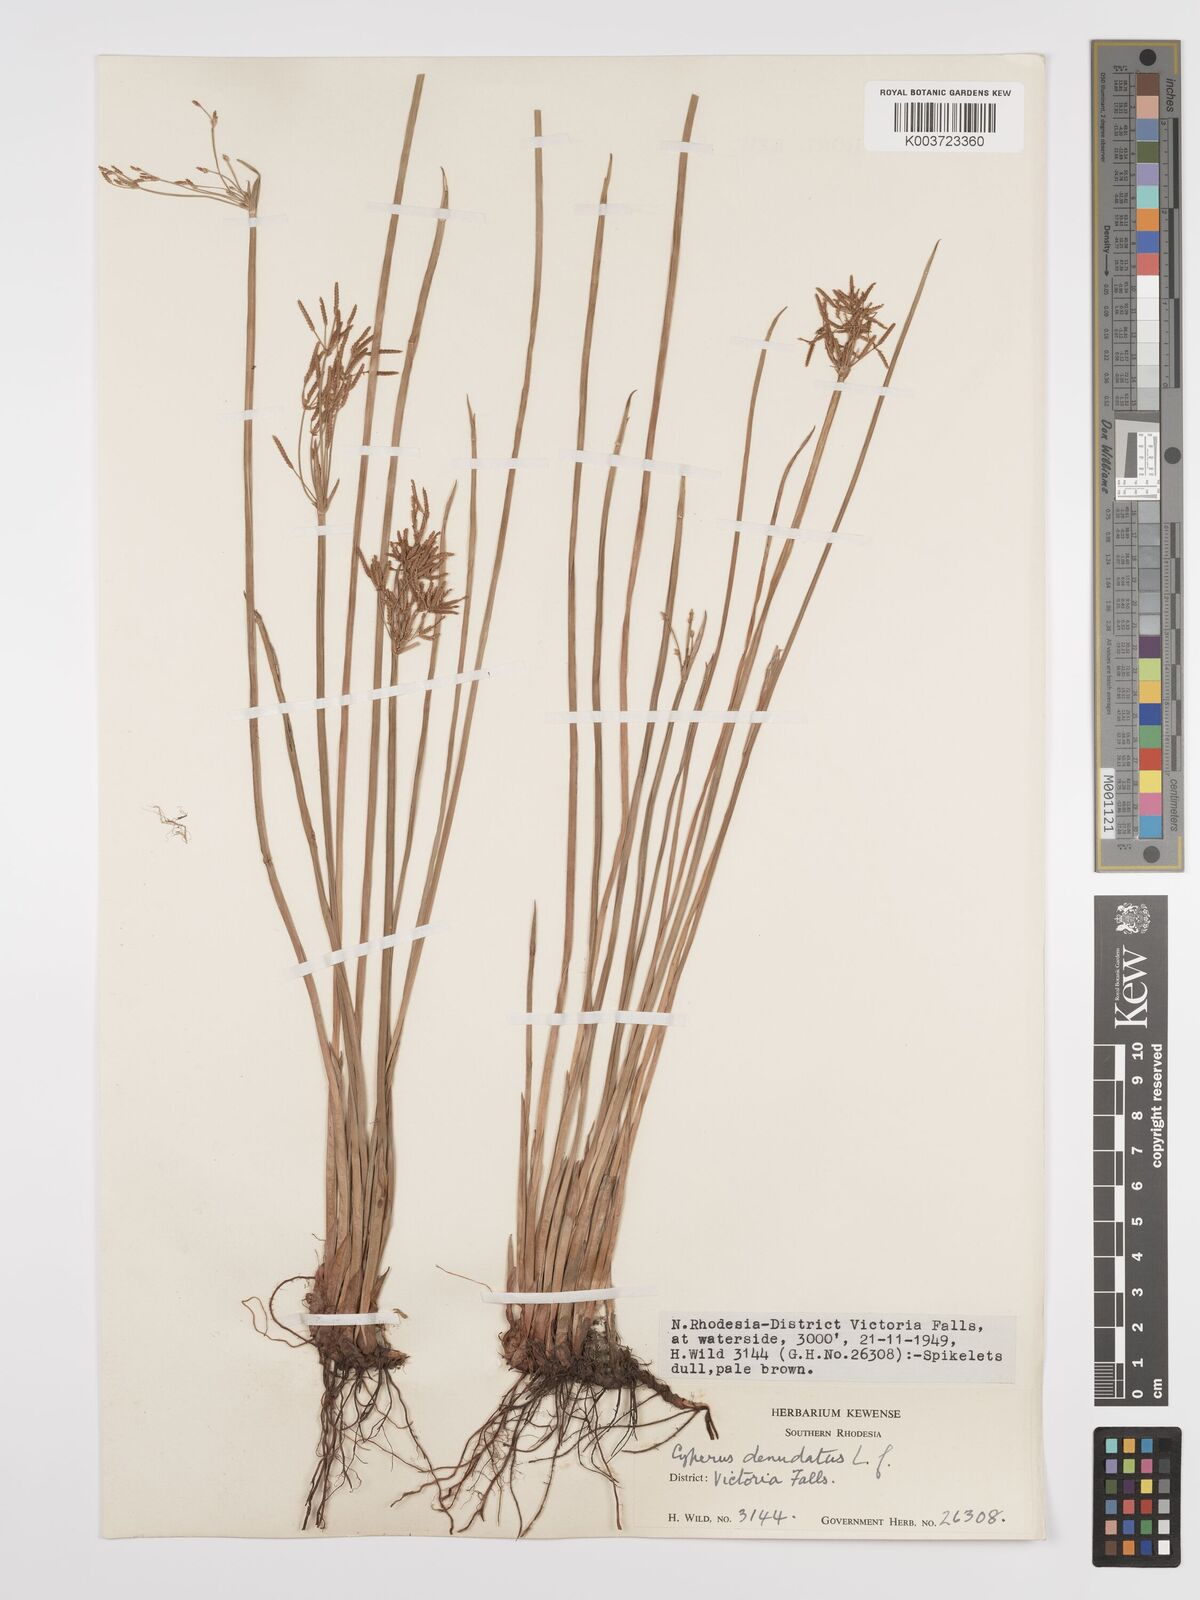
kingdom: Plantae
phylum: Tracheophyta
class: Liliopsida
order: Poales
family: Cyperaceae
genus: Cyperus
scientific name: Cyperus denudatus
